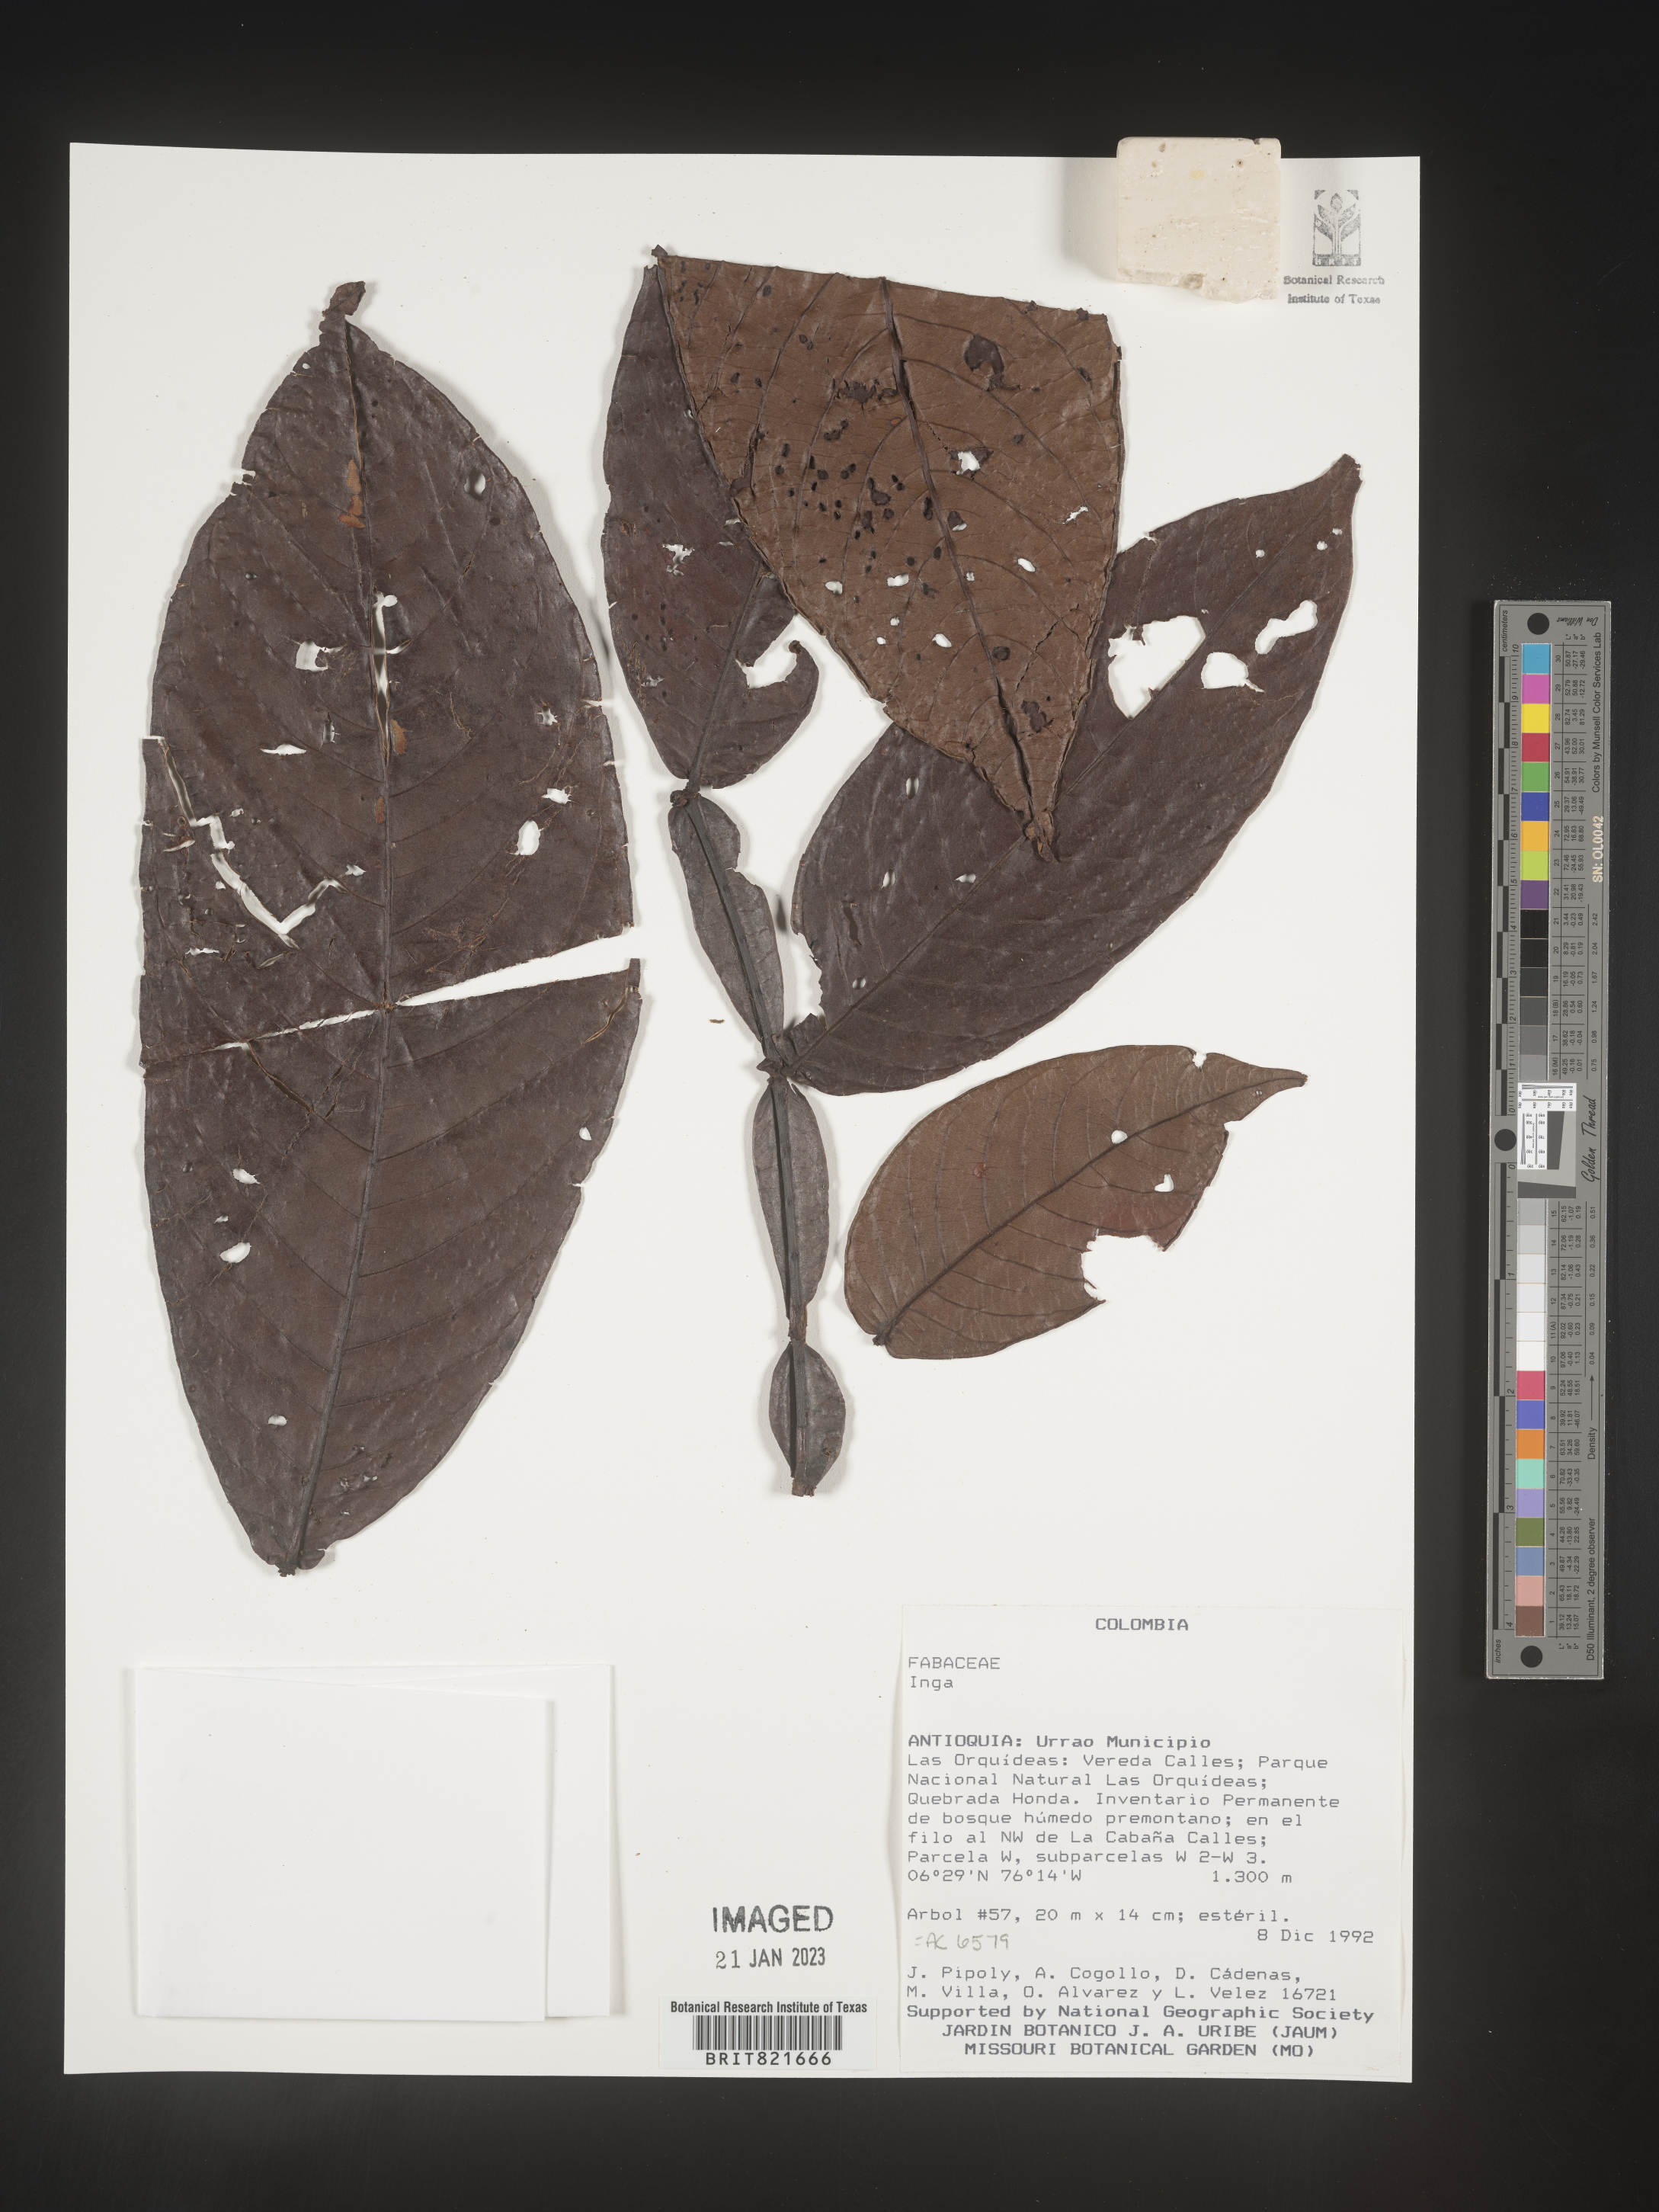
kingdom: Plantae
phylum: Tracheophyta
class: Magnoliopsida
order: Fabales
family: Fabaceae
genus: Inga
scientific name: Inga
